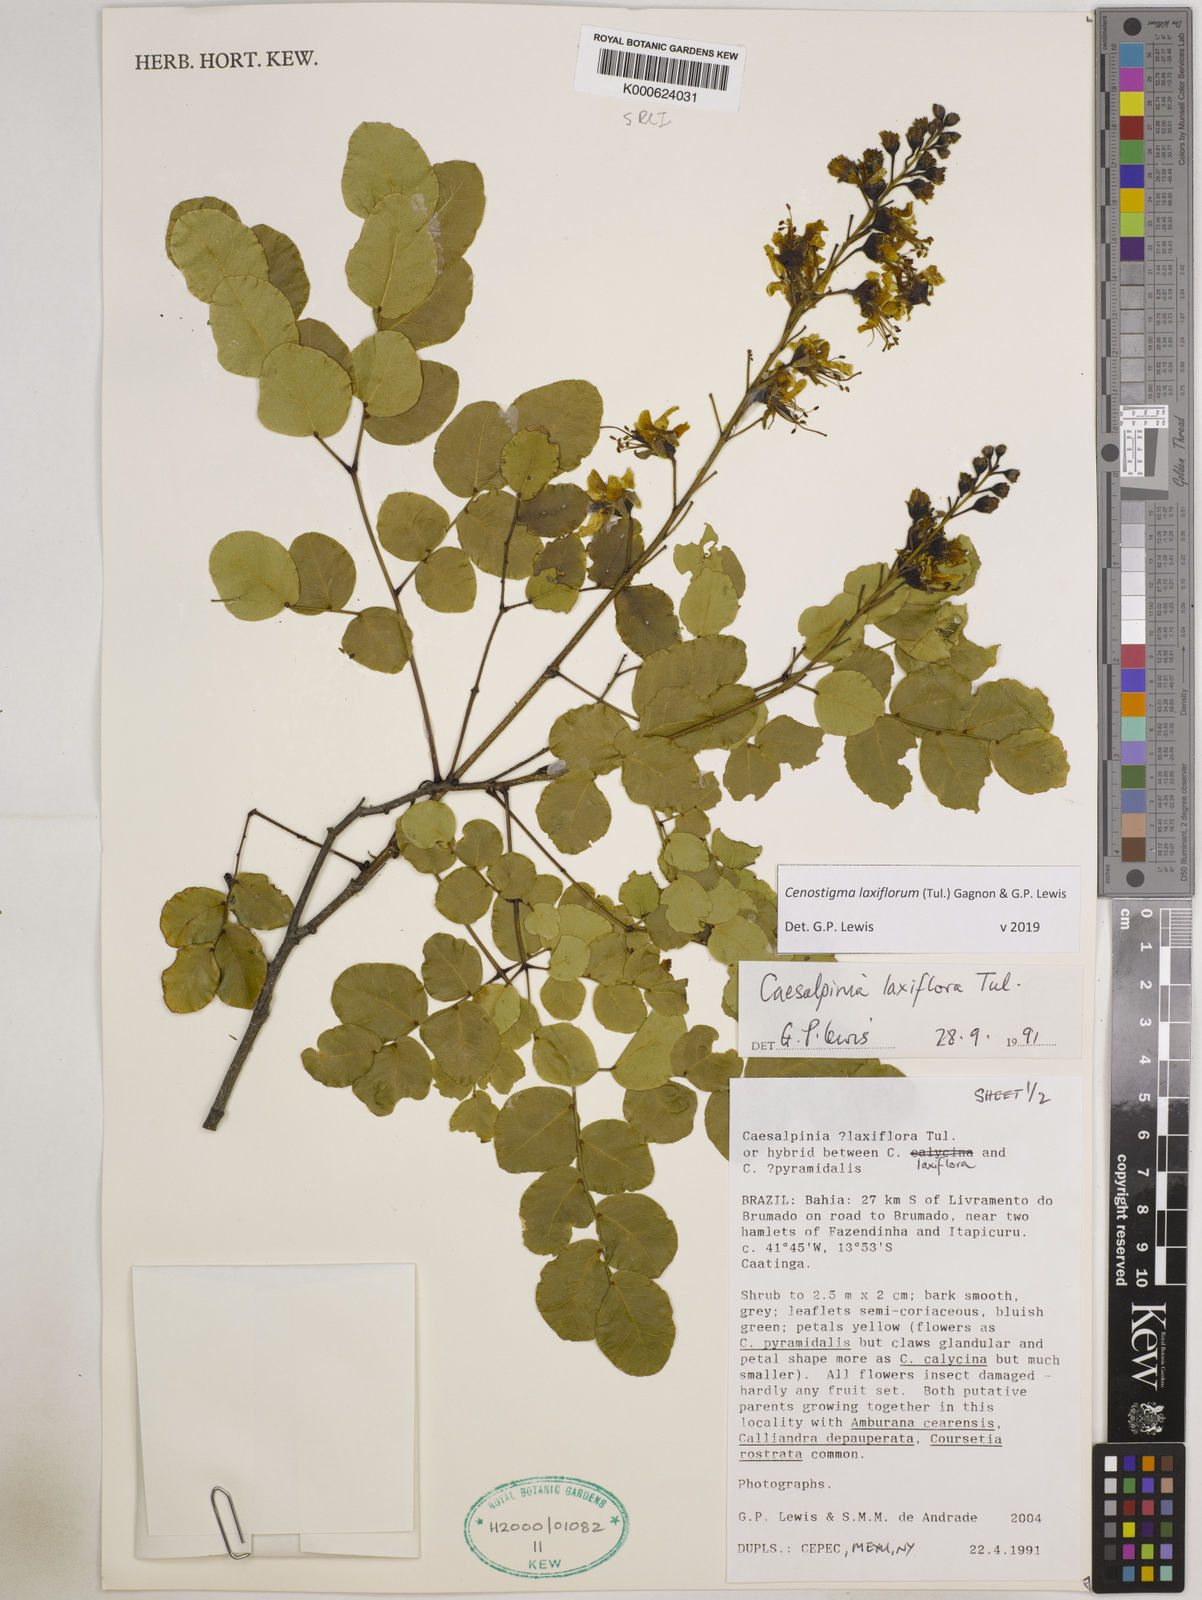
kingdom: Plantae
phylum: Tracheophyta
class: Magnoliopsida
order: Fabales
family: Fabaceae
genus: Cenostigma
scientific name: Cenostigma laxiflorum
